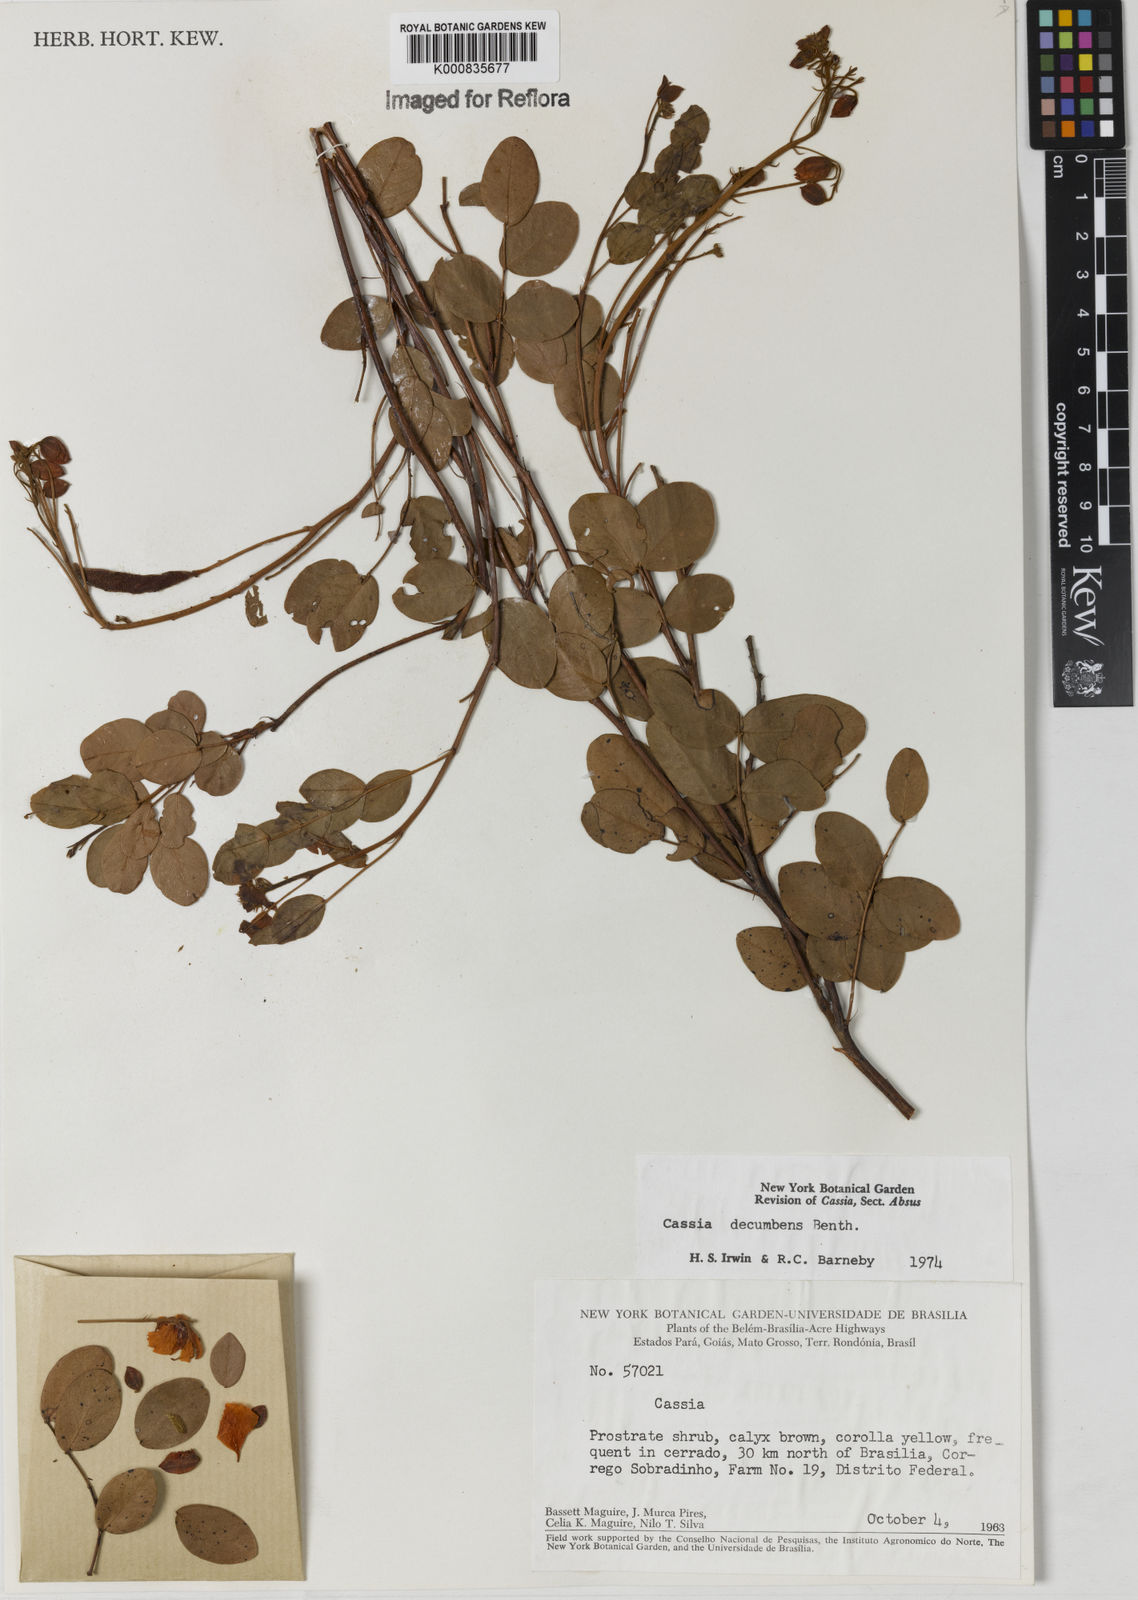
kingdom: Plantae
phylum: Tracheophyta
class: Magnoliopsida
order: Fabales
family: Fabaceae
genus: Chamaecrista
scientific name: Chamaecrista decumbens
